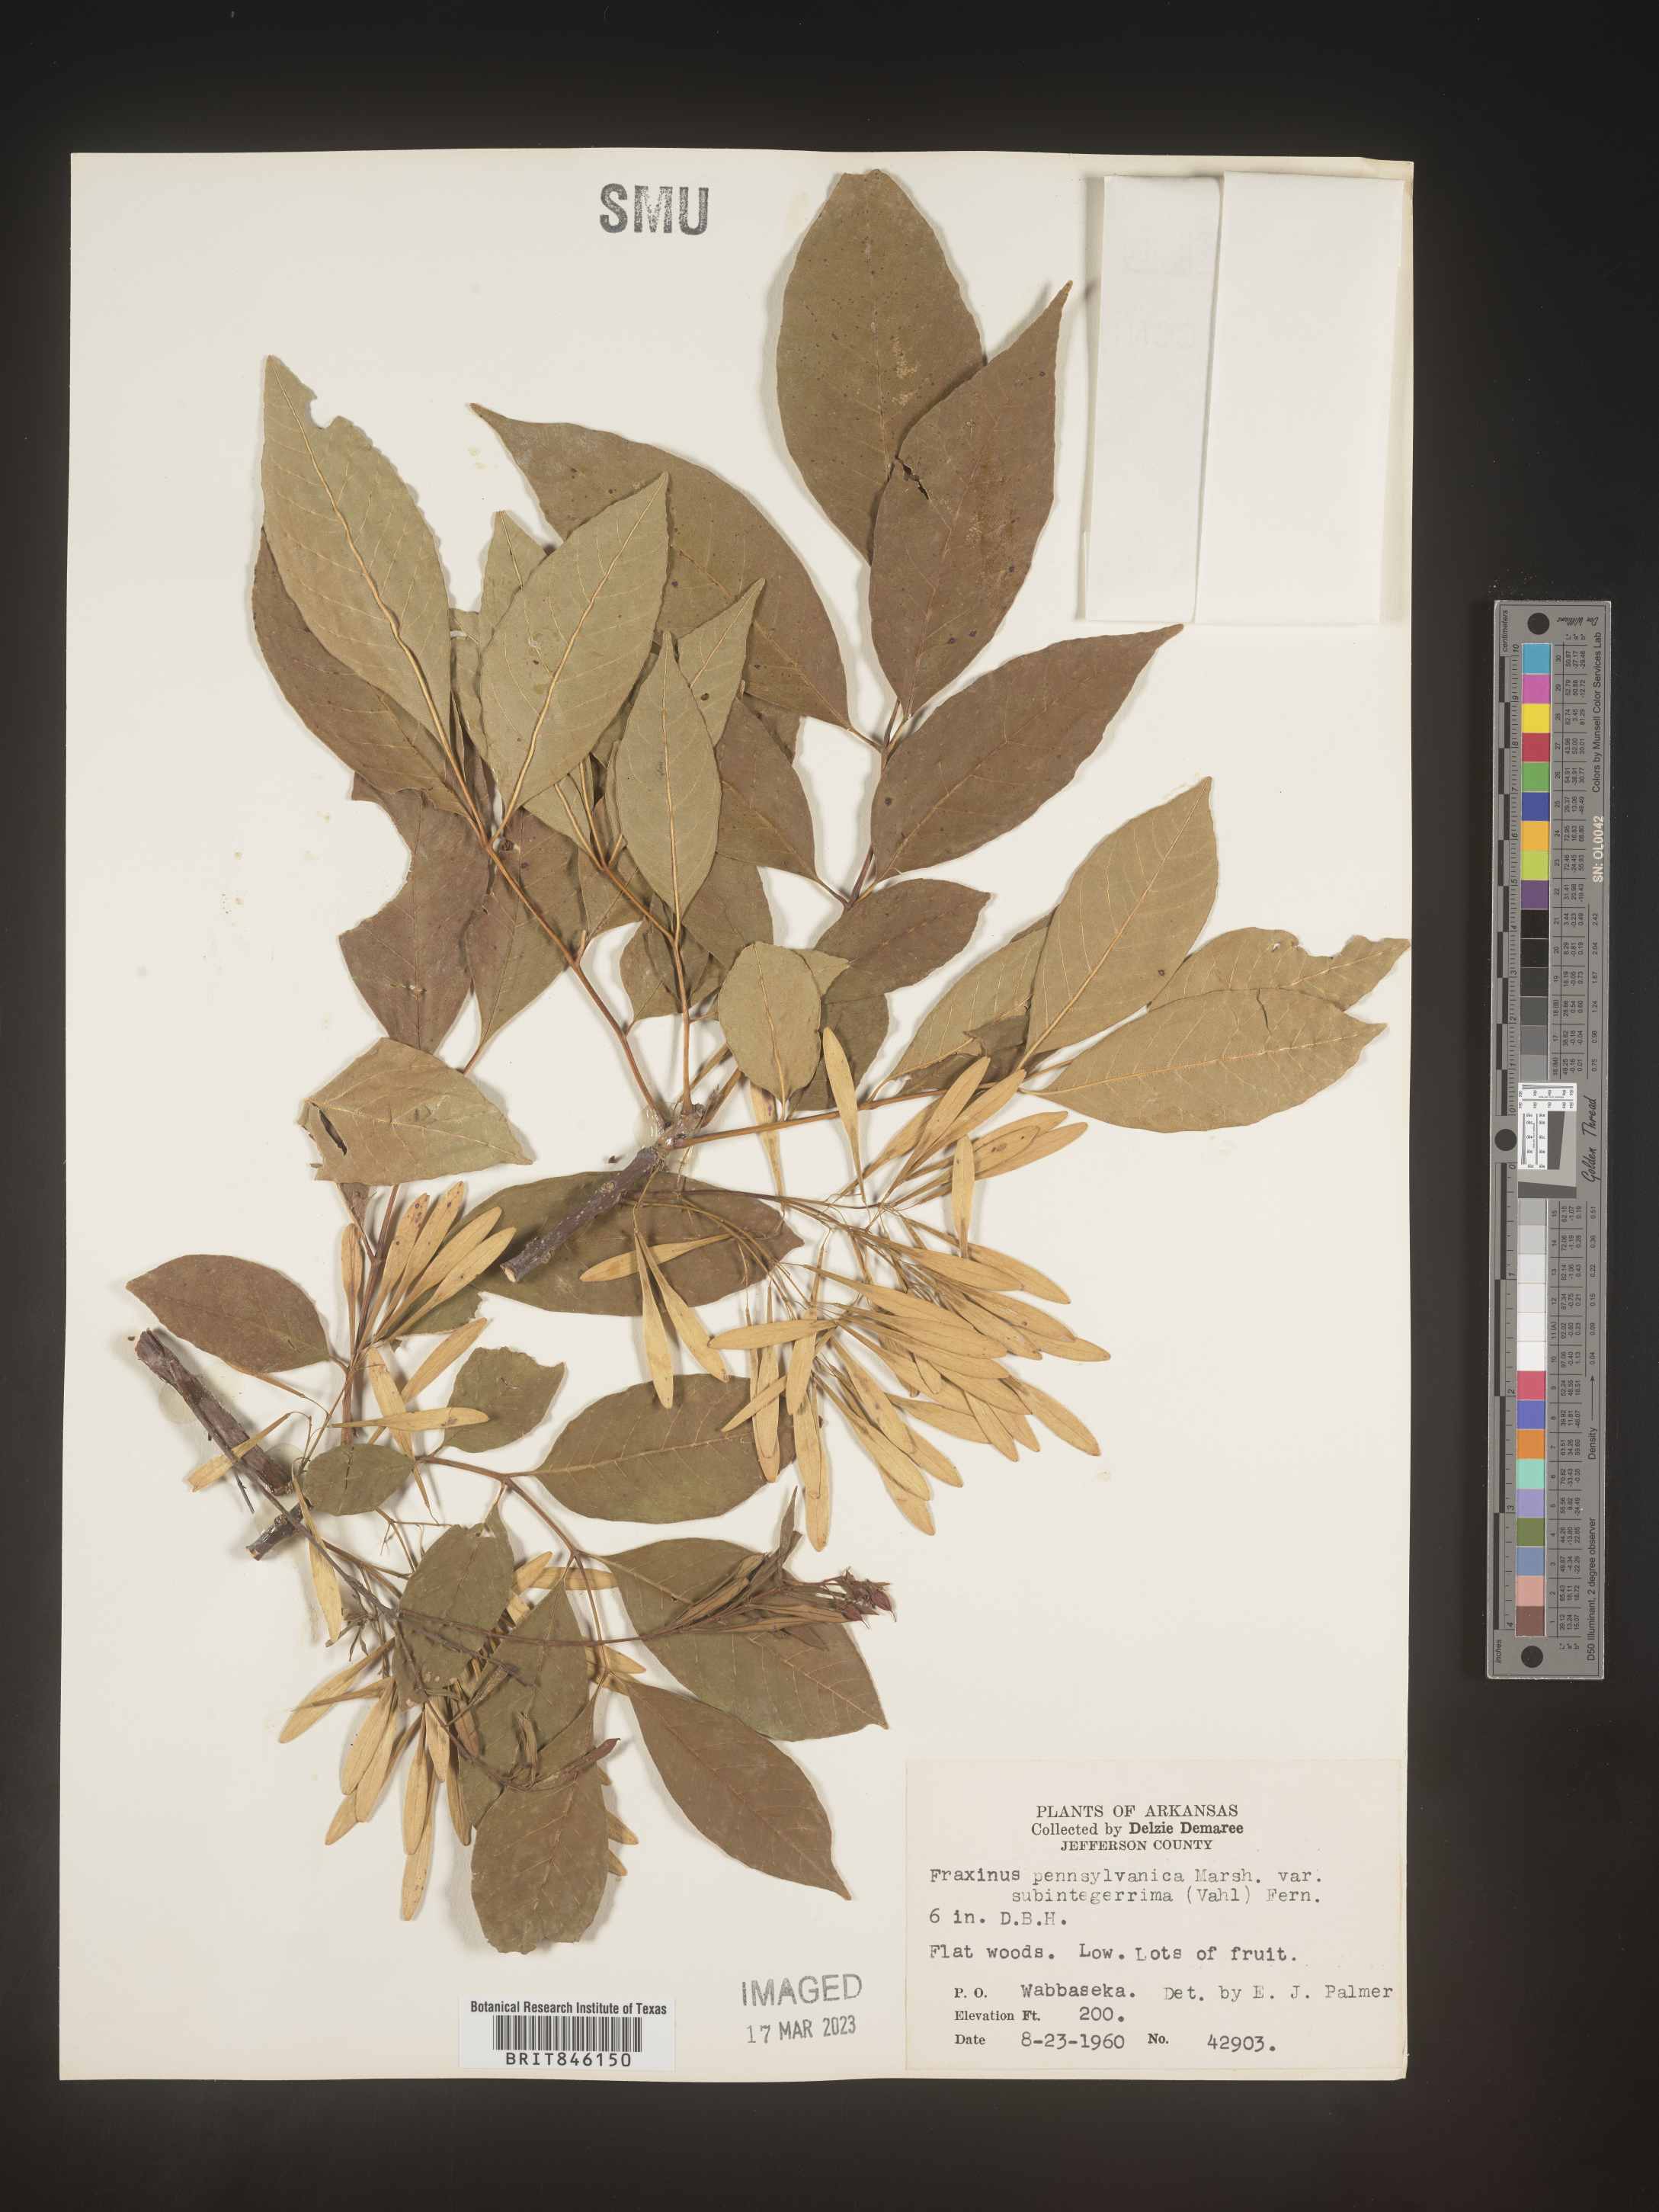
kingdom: Plantae
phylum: Tracheophyta
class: Magnoliopsida
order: Lamiales
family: Oleaceae
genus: Fraxinus
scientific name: Fraxinus pennsylvanica
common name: Green ash
